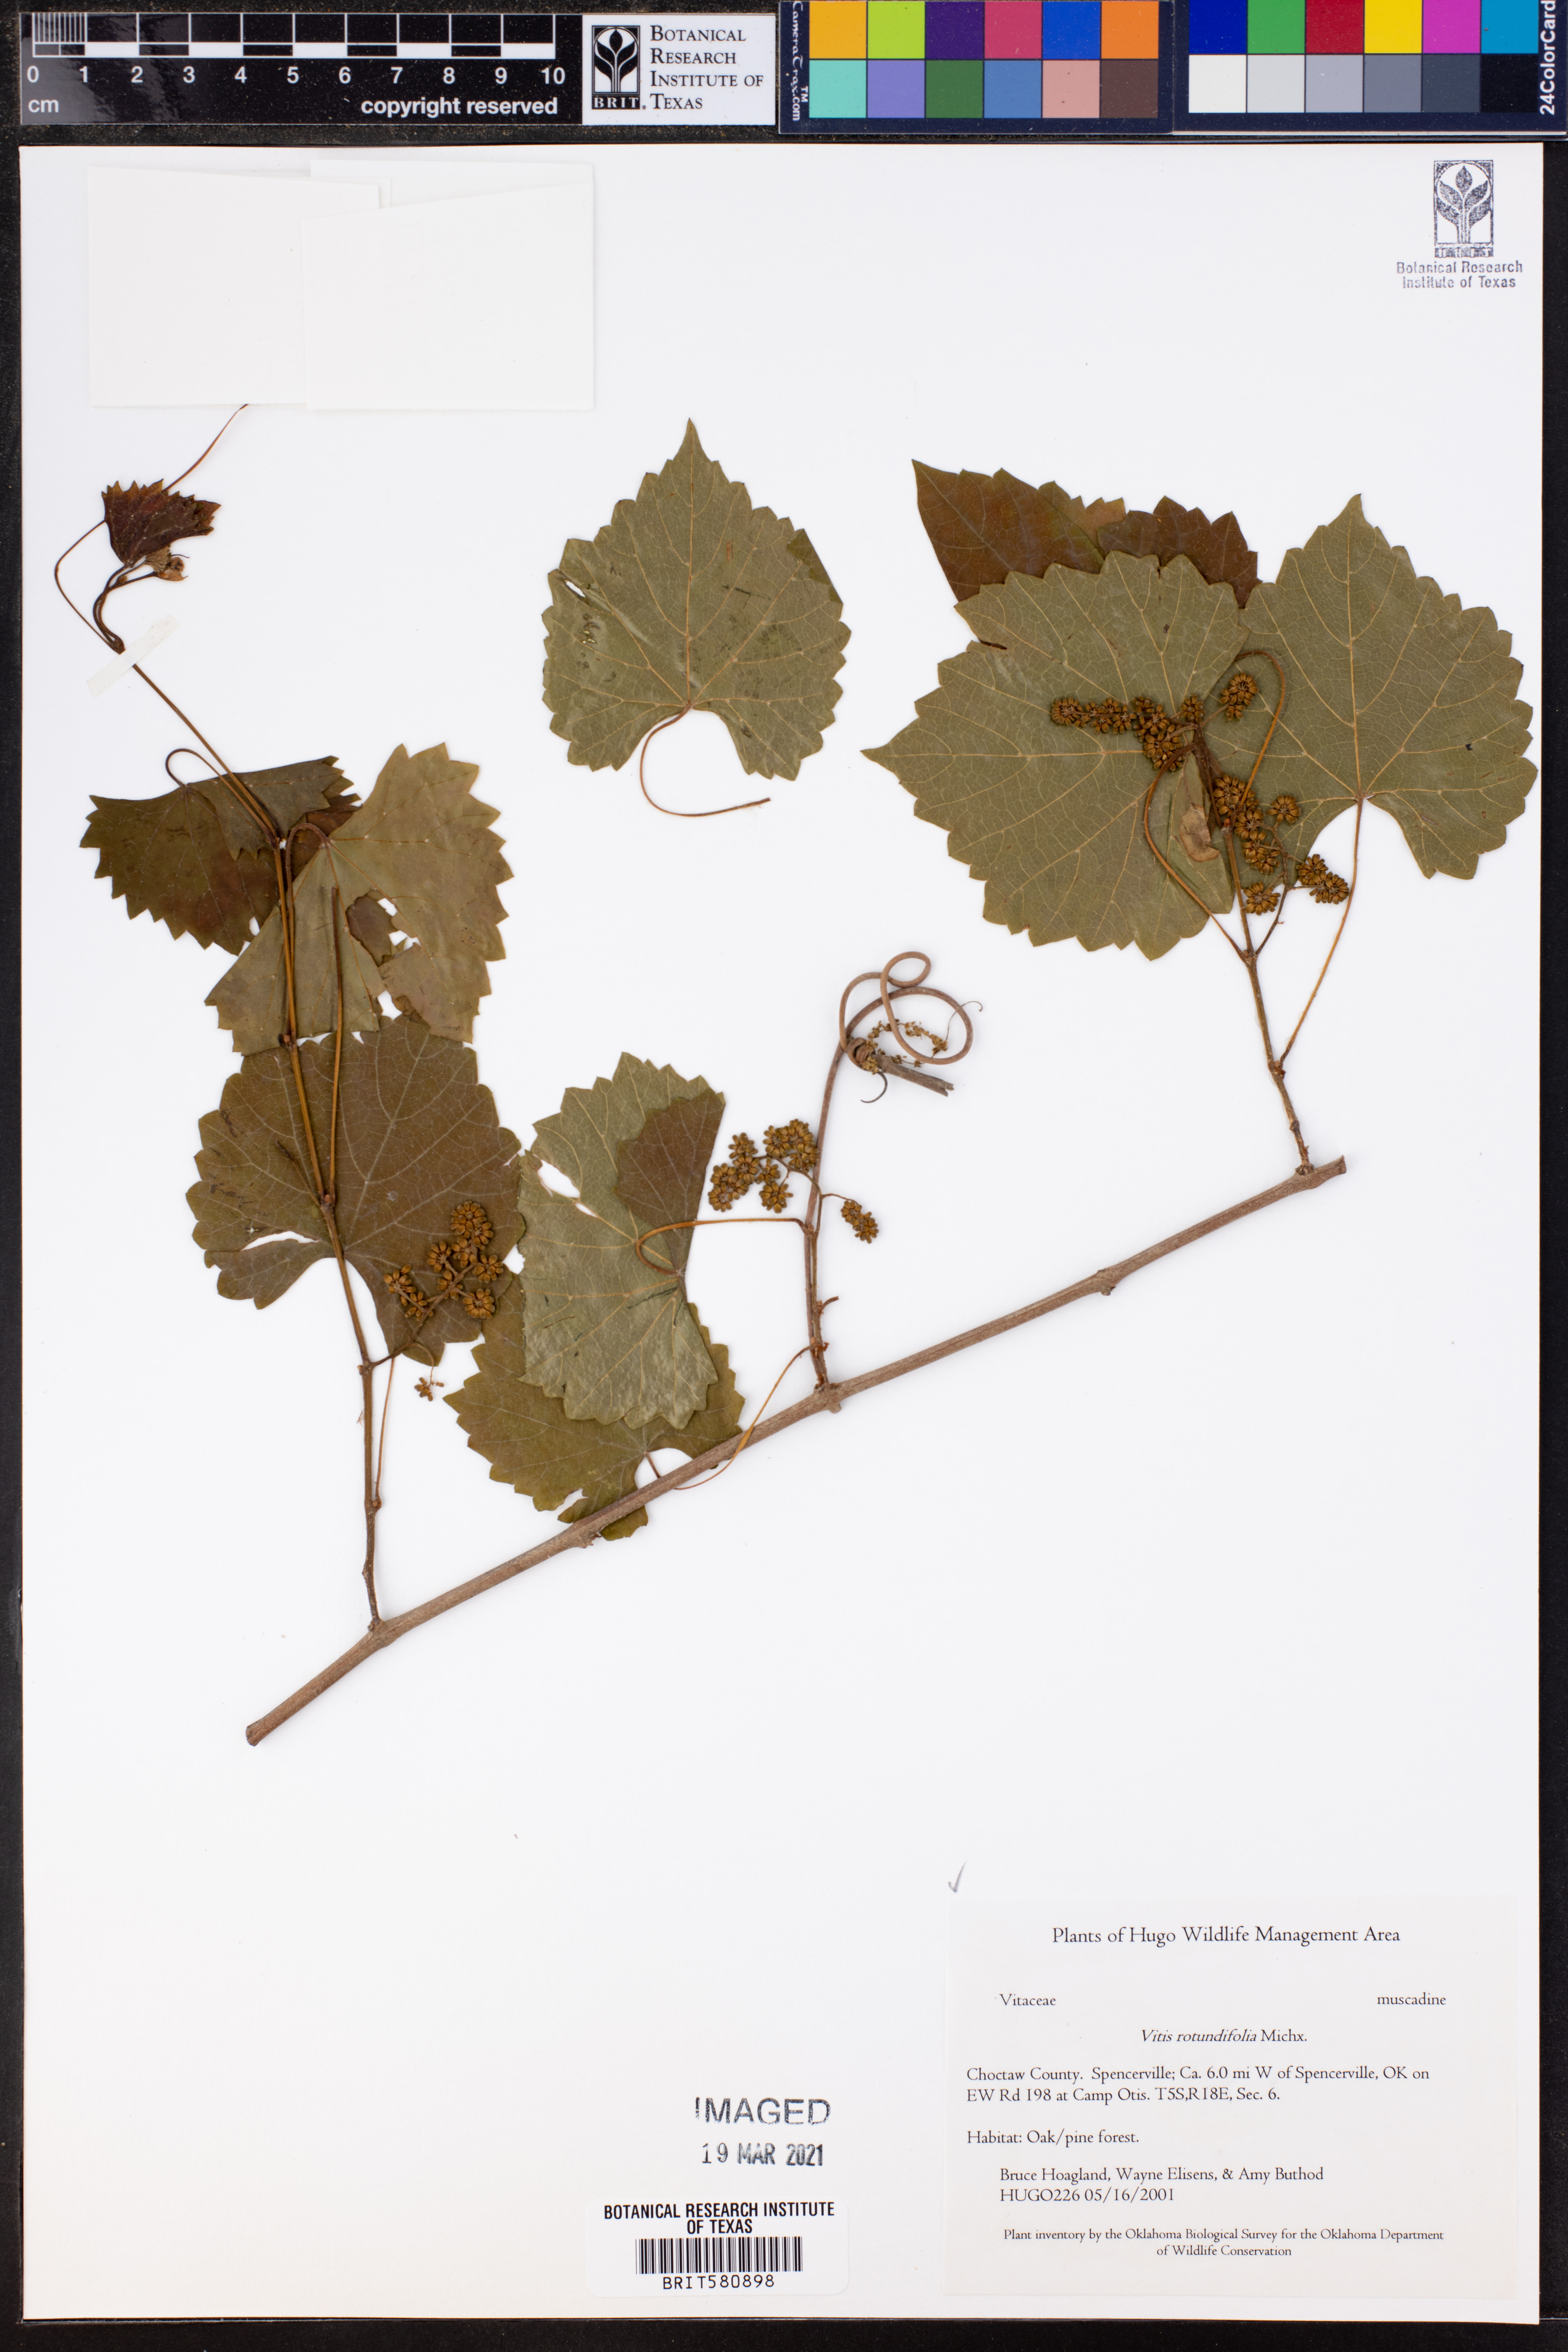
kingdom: Plantae
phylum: Tracheophyta
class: Magnoliopsida
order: Vitales
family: Vitaceae
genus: Vitis
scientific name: Vitis rotundifolia
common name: Muscadine grape
